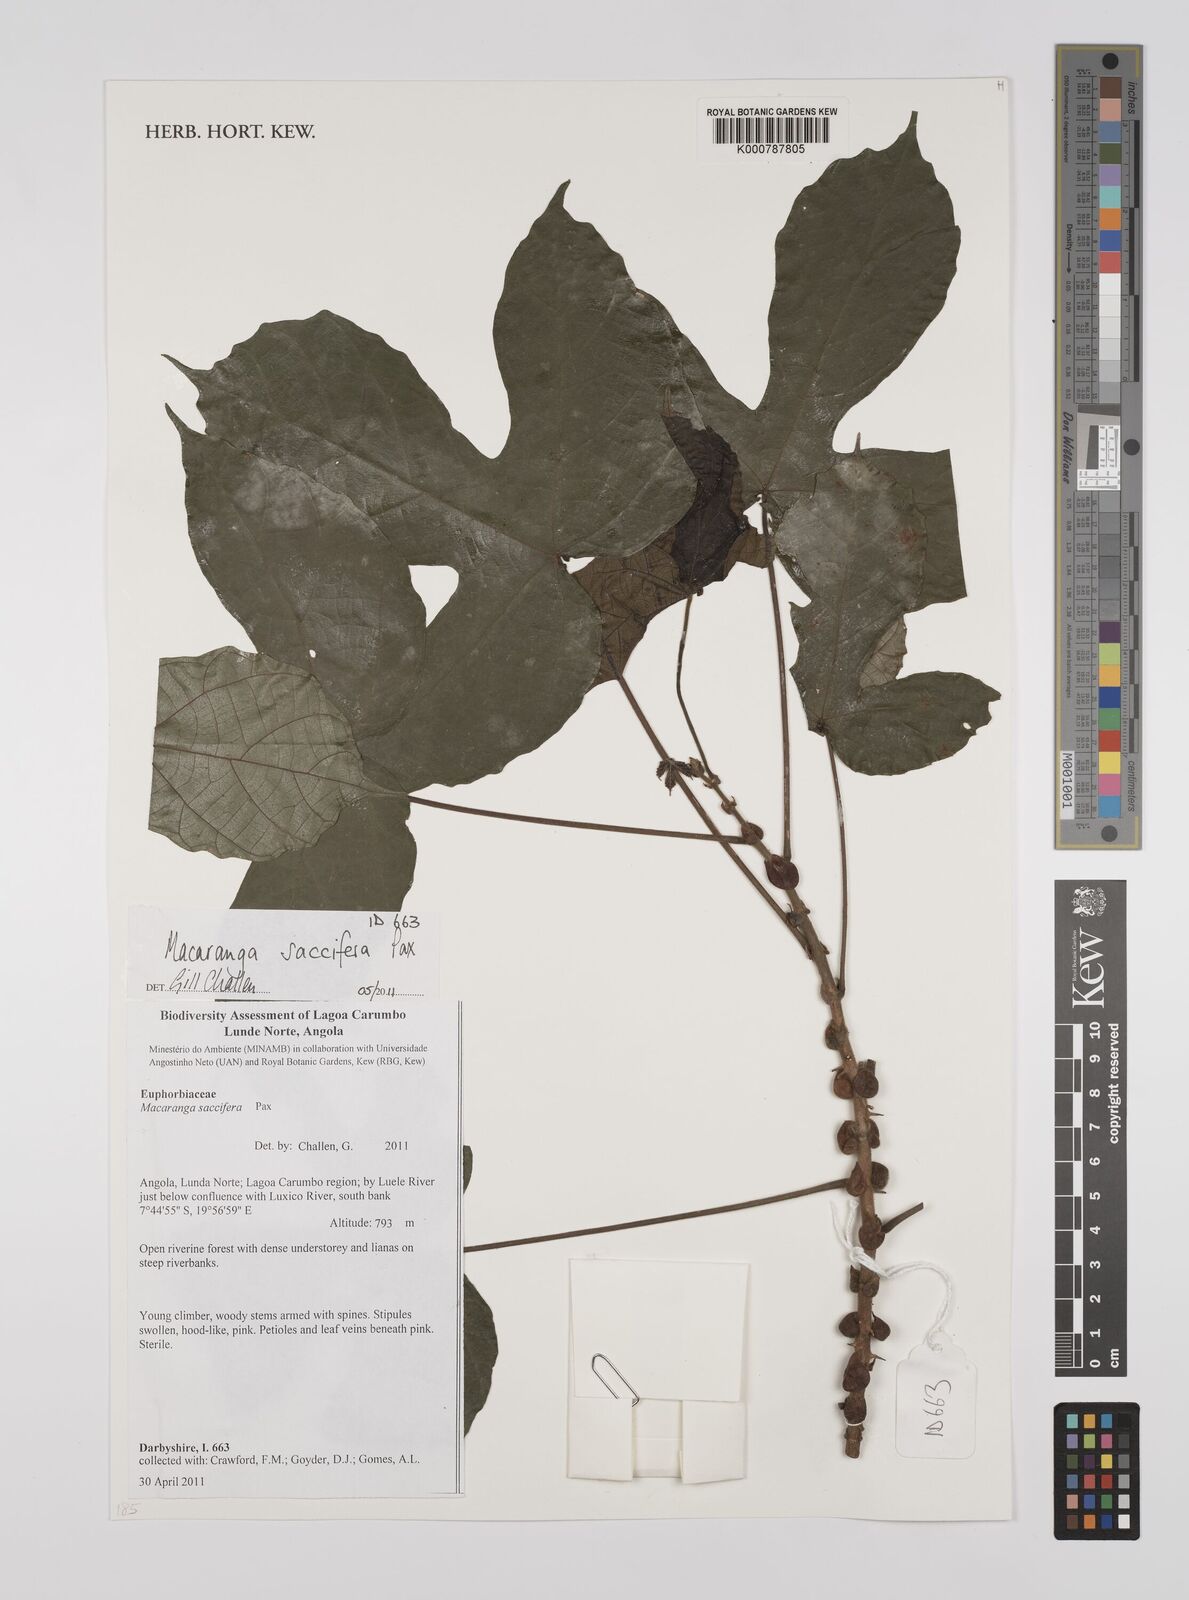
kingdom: Plantae
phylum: Tracheophyta
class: Magnoliopsida
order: Malpighiales
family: Euphorbiaceae
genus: Macaranga
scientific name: Macaranga saccifera
